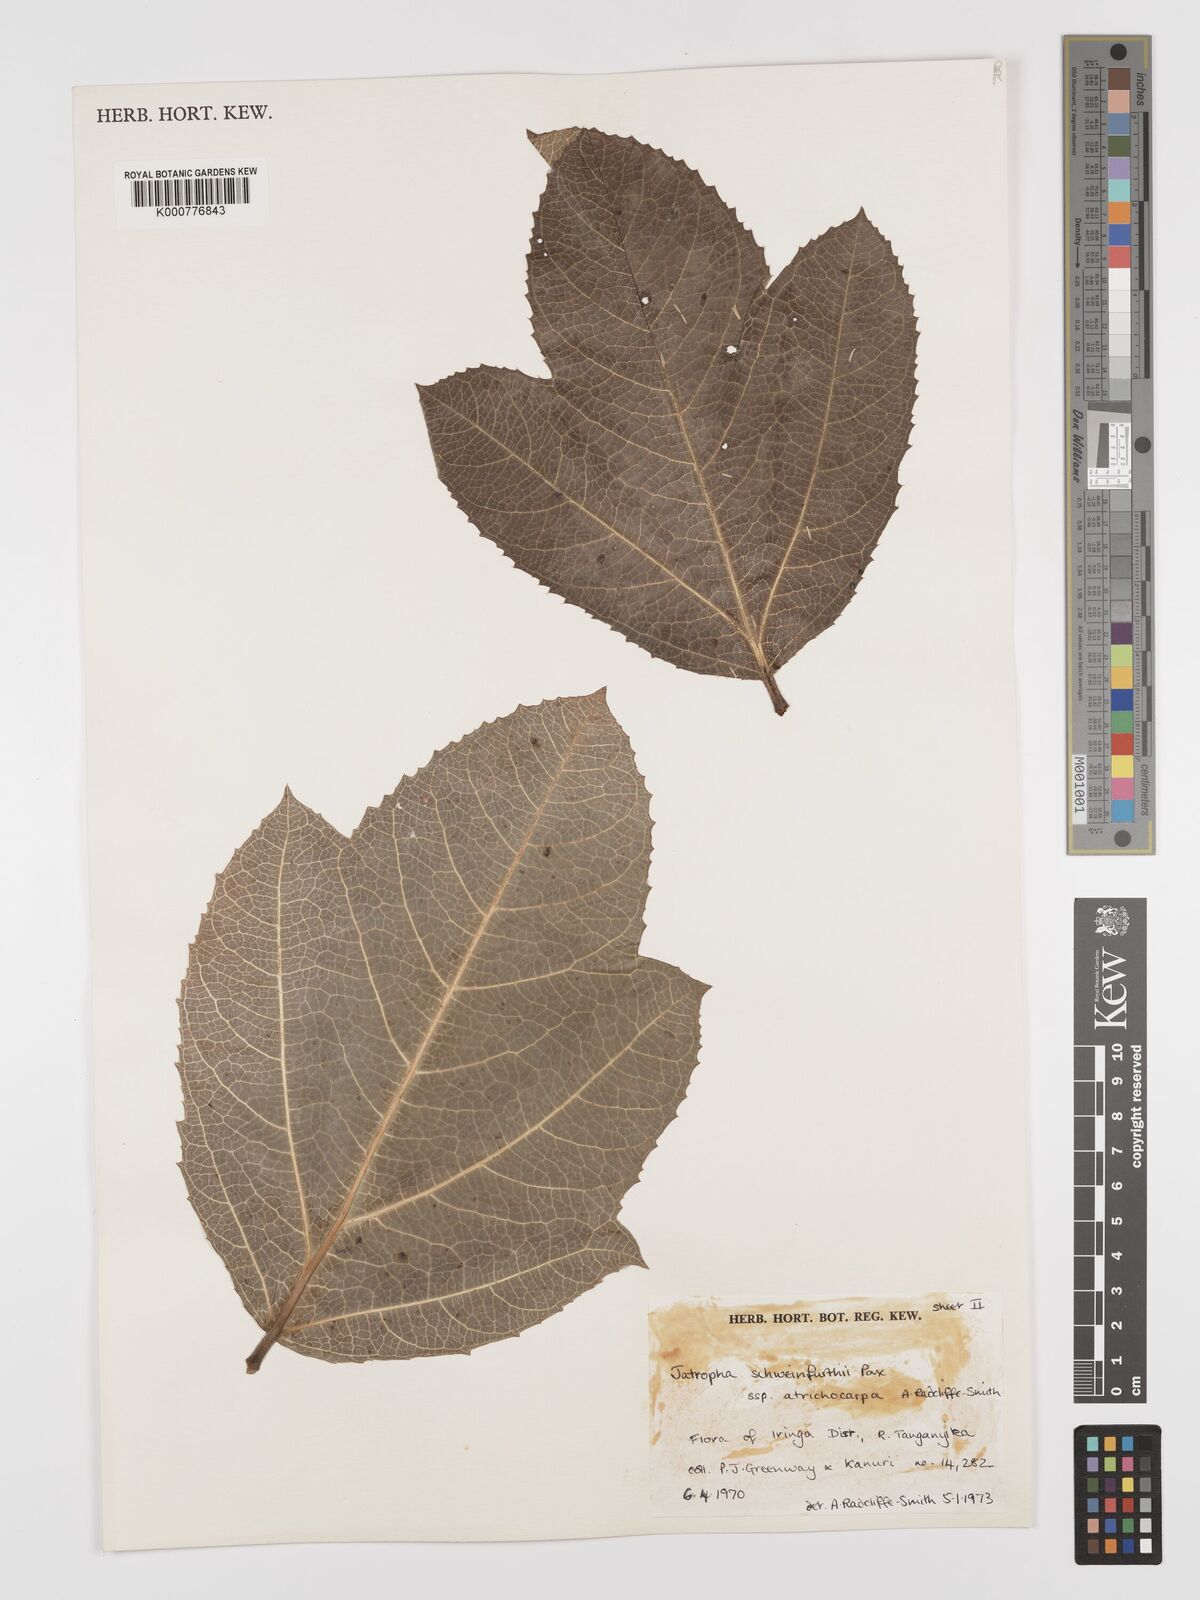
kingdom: Plantae
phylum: Tracheophyta
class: Magnoliopsida
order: Malpighiales
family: Euphorbiaceae
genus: Jatropha
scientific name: Jatropha schweinfurthii
